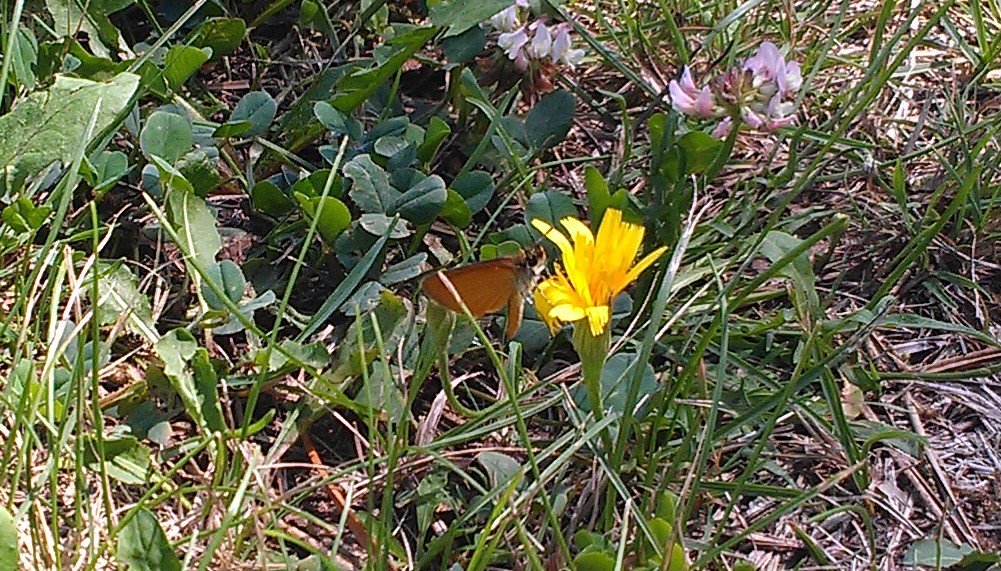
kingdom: Animalia
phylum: Arthropoda
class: Insecta
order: Lepidoptera
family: Hesperiidae
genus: Ancyloxypha
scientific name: Ancyloxypha numitor
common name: Least Skipper
